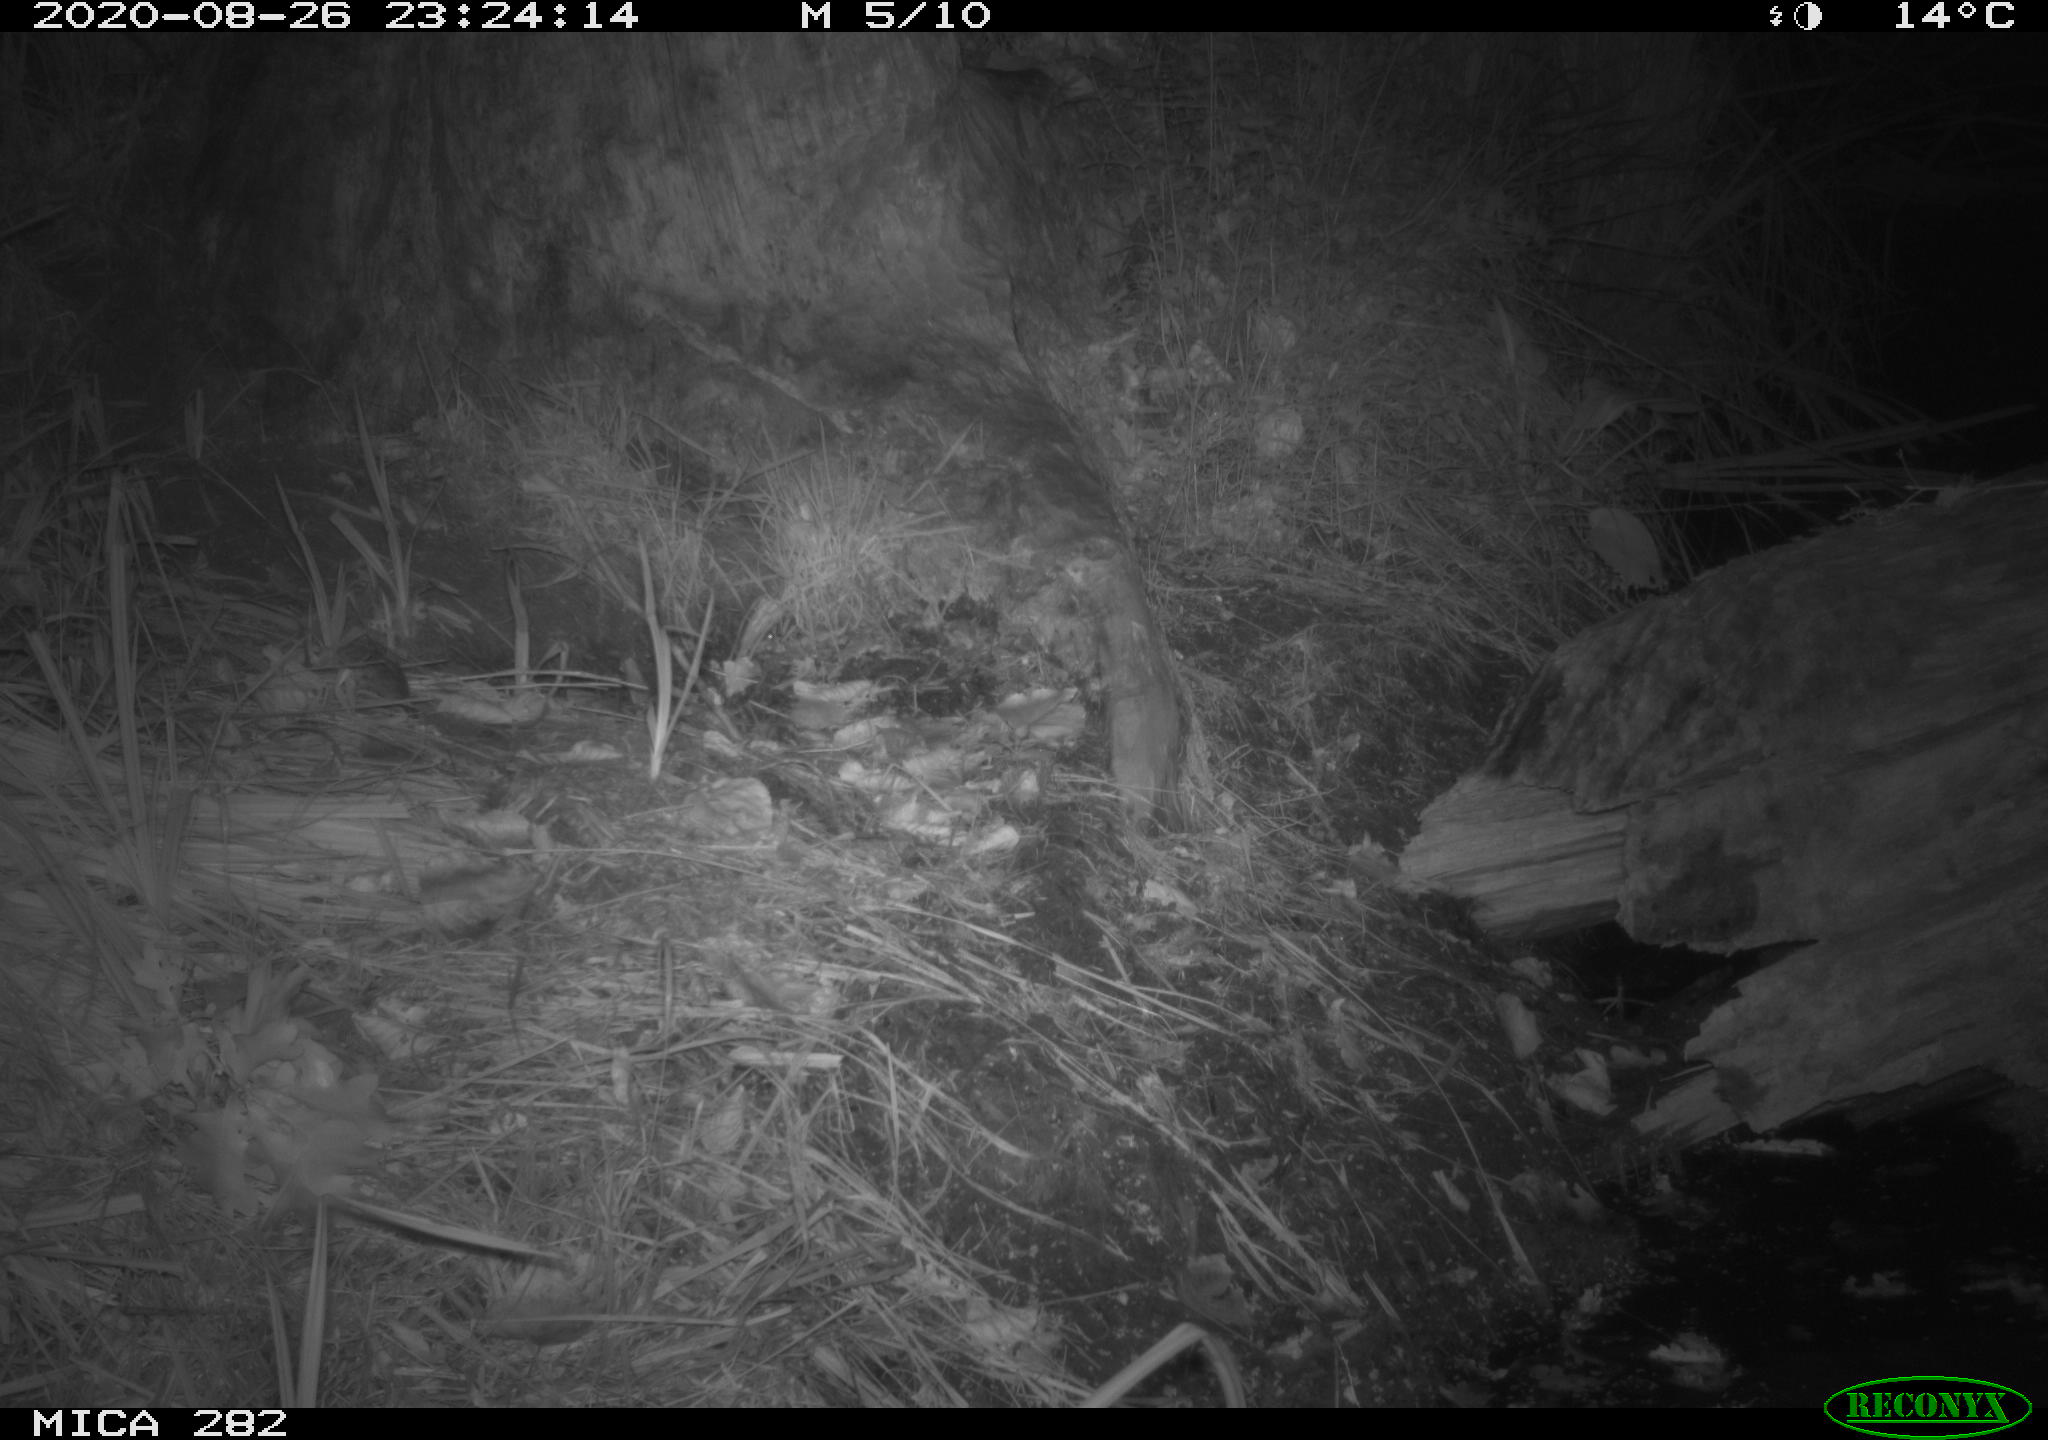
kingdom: Animalia
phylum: Chordata
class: Mammalia
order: Carnivora
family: Mustelidae
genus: Martes
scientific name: Martes foina
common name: Beech marten
